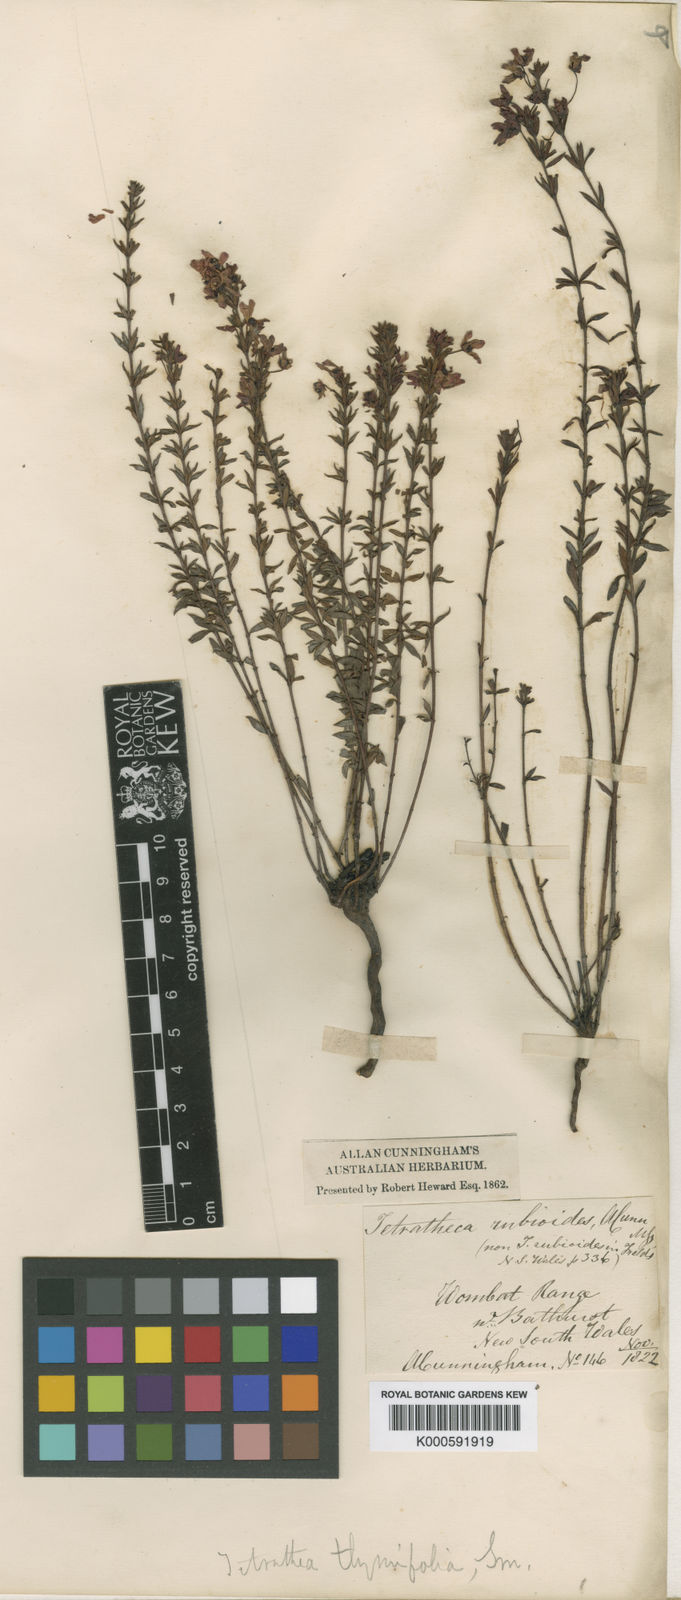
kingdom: Plantae
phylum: Tracheophyta
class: Magnoliopsida
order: Oxalidales
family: Elaeocarpaceae
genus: Tetratheca
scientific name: Tetratheca rubioides
